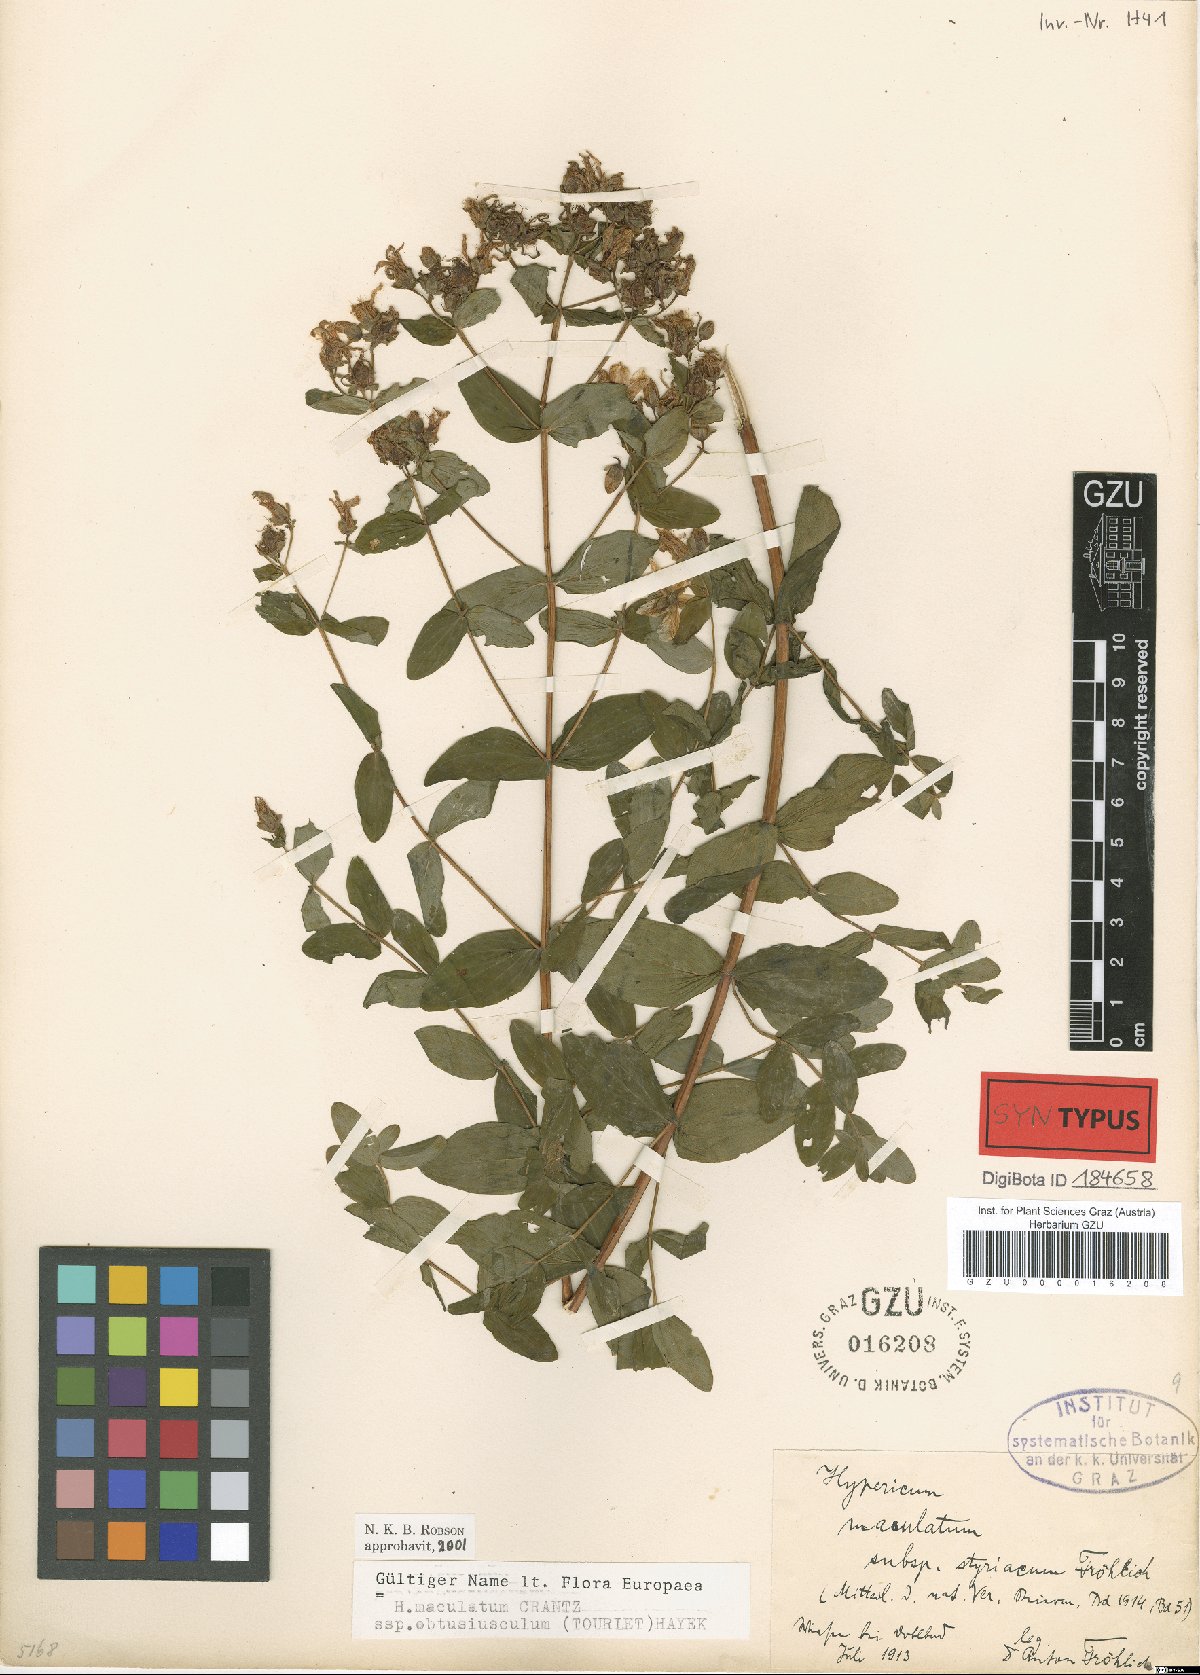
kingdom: Plantae
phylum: Tracheophyta
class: Magnoliopsida
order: Malpighiales
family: Hypericaceae
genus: Hypericum
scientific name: Hypericum dubium
